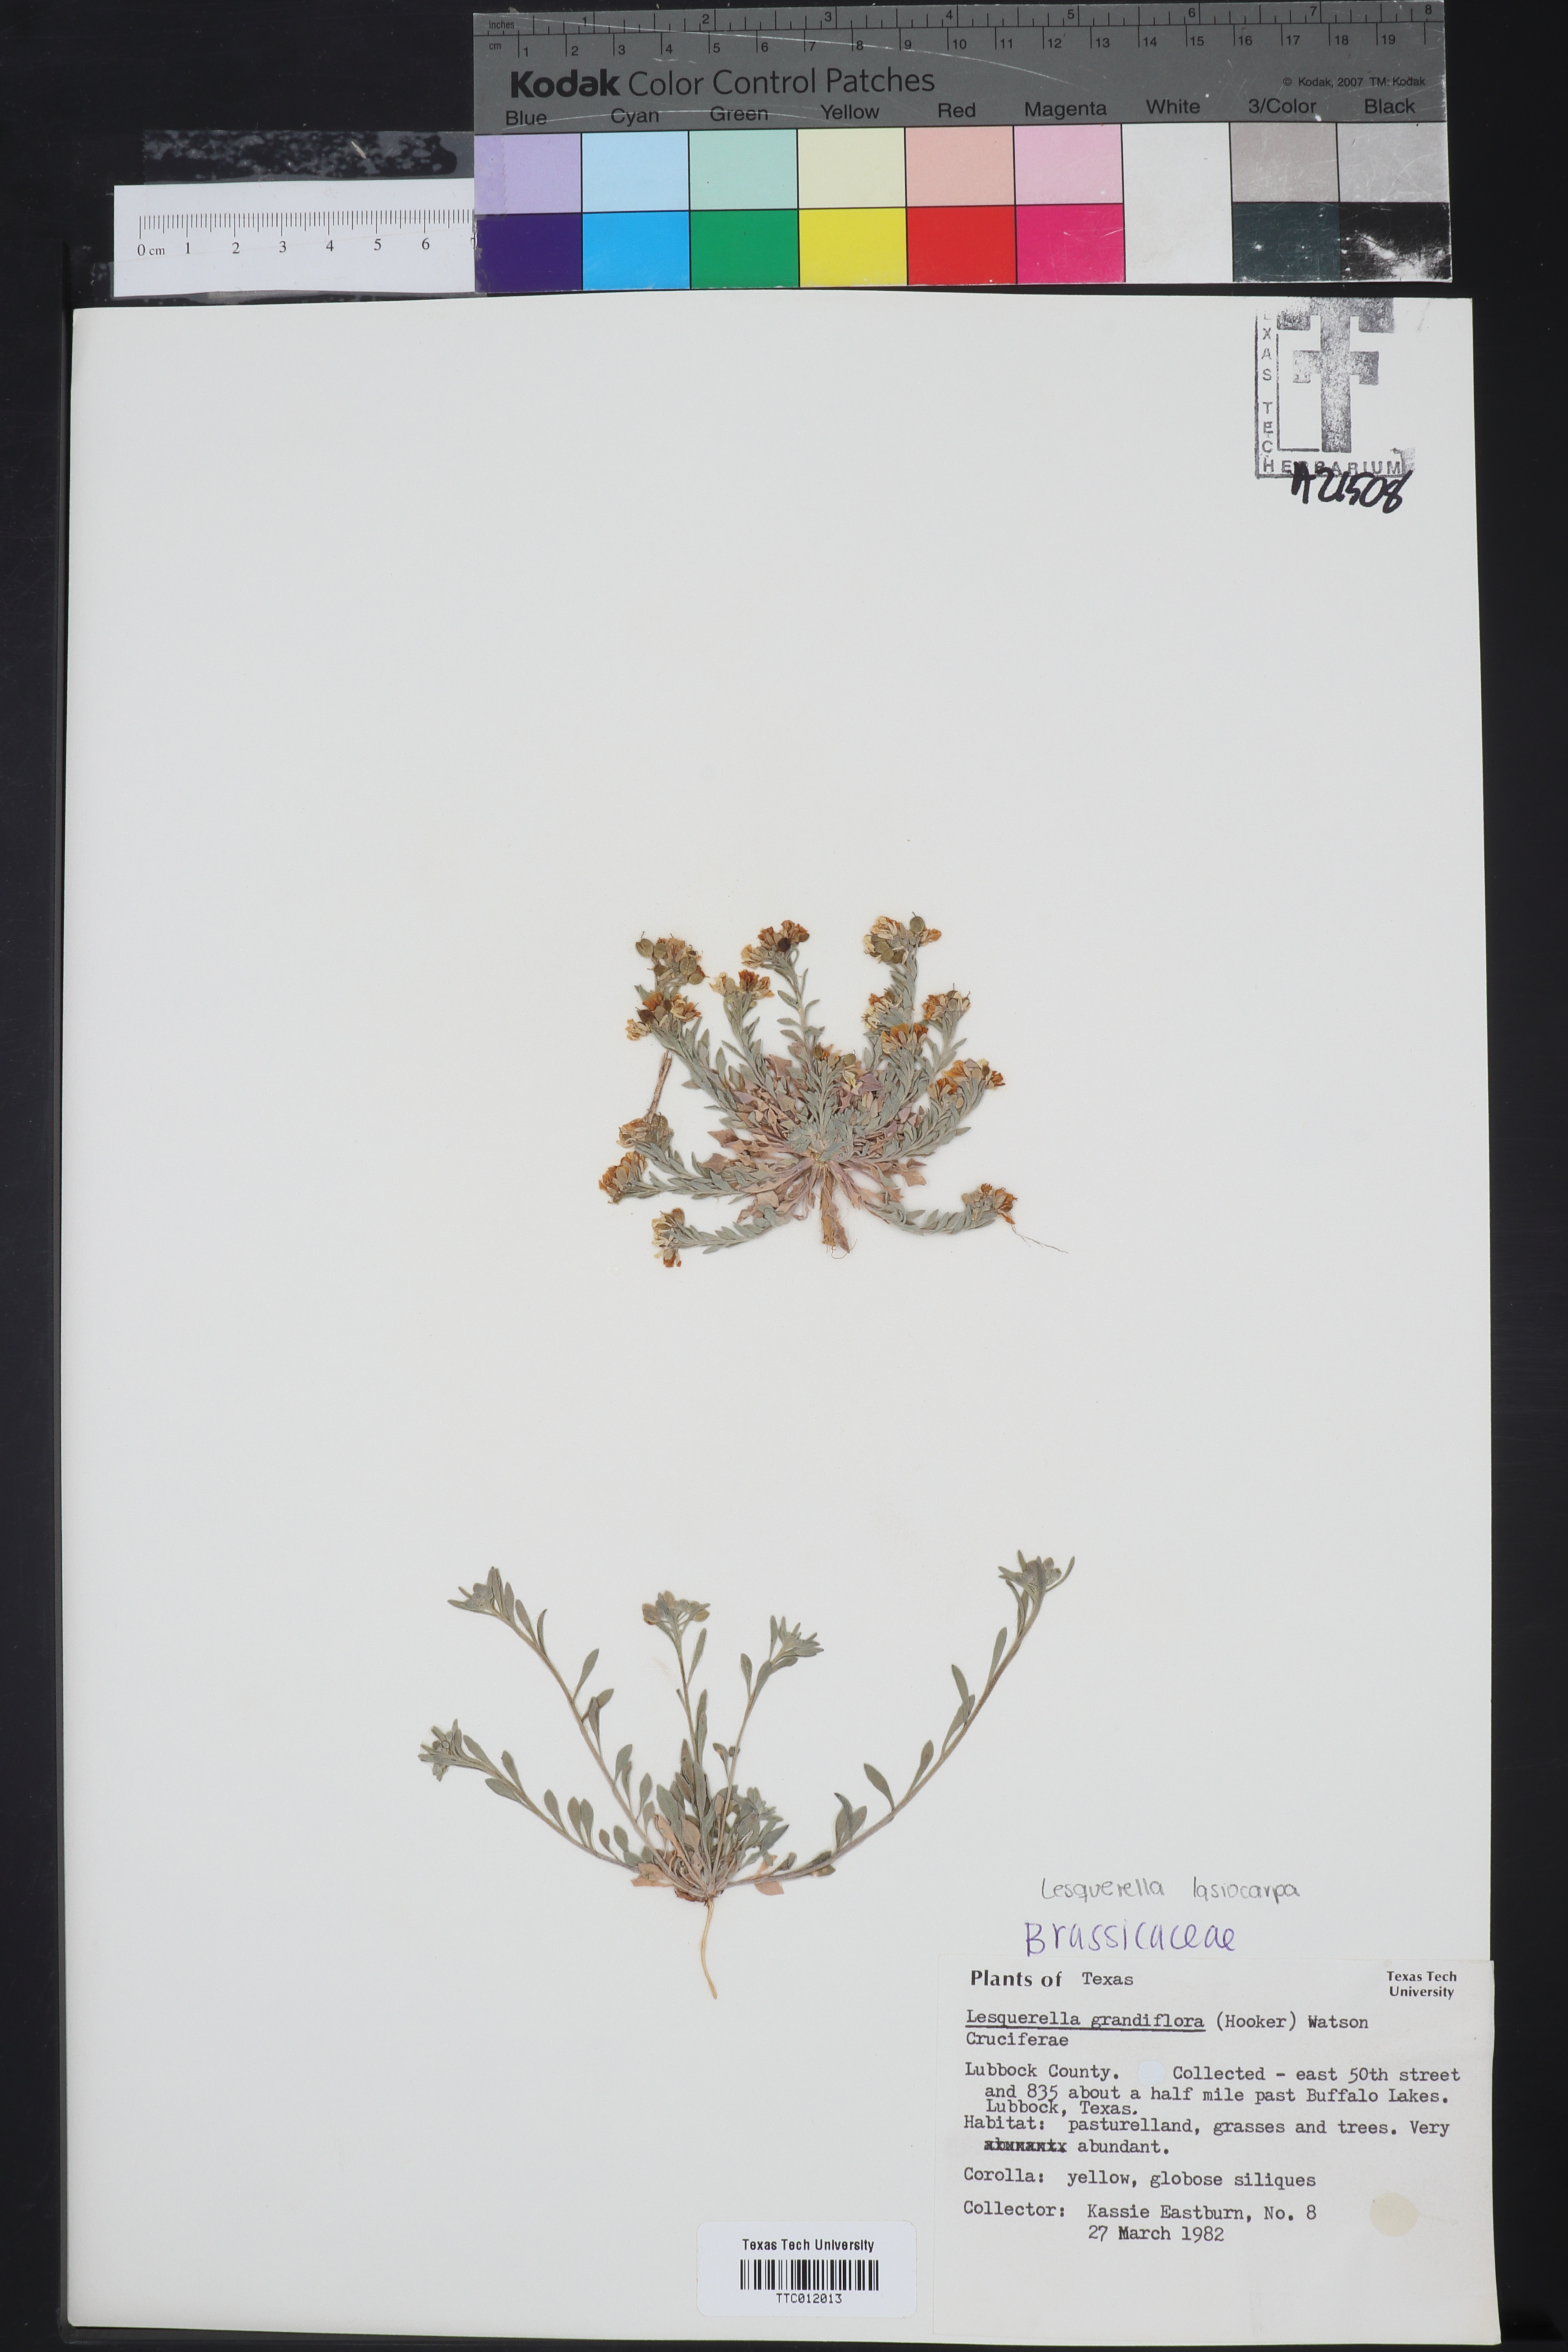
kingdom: Plantae
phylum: Tracheophyta
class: Magnoliopsida
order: Brassicales
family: Brassicaceae
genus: Paysonia
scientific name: Paysonia grandiflora
